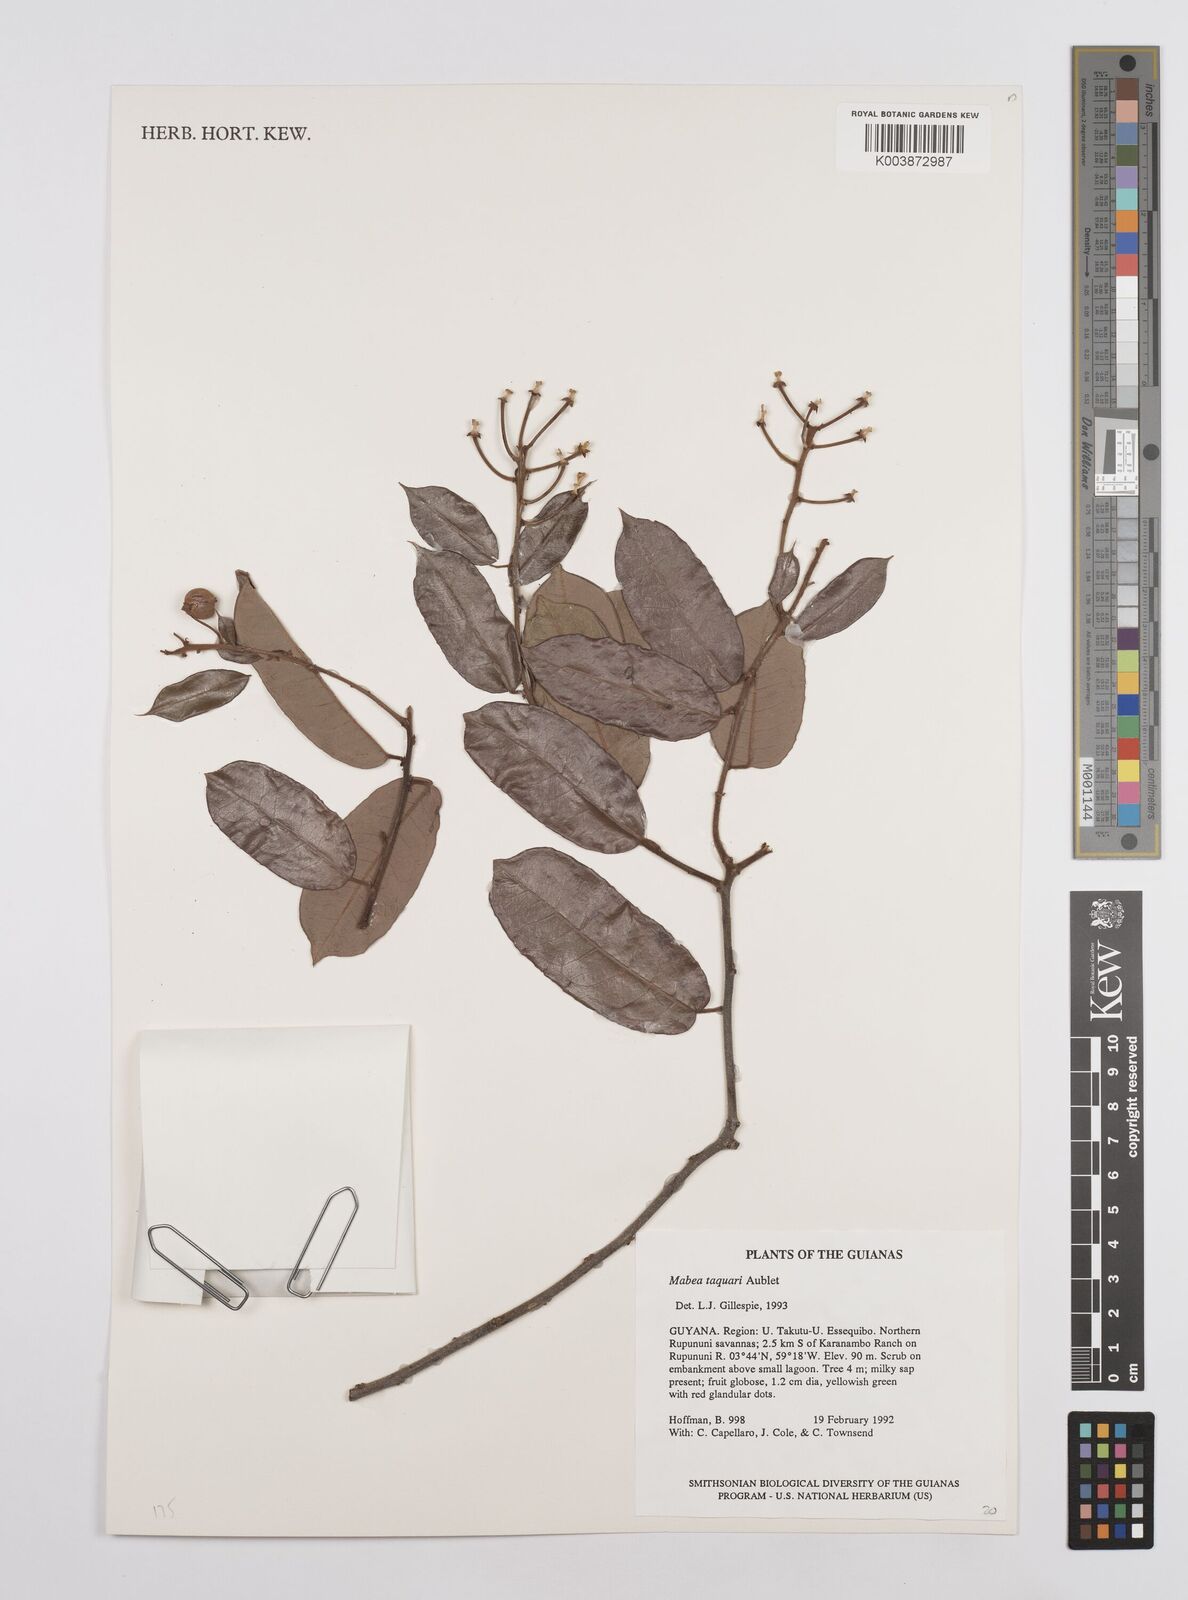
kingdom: Plantae
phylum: Tracheophyta
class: Magnoliopsida
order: Malpighiales
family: Euphorbiaceae
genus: Mabea
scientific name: Mabea taquari
